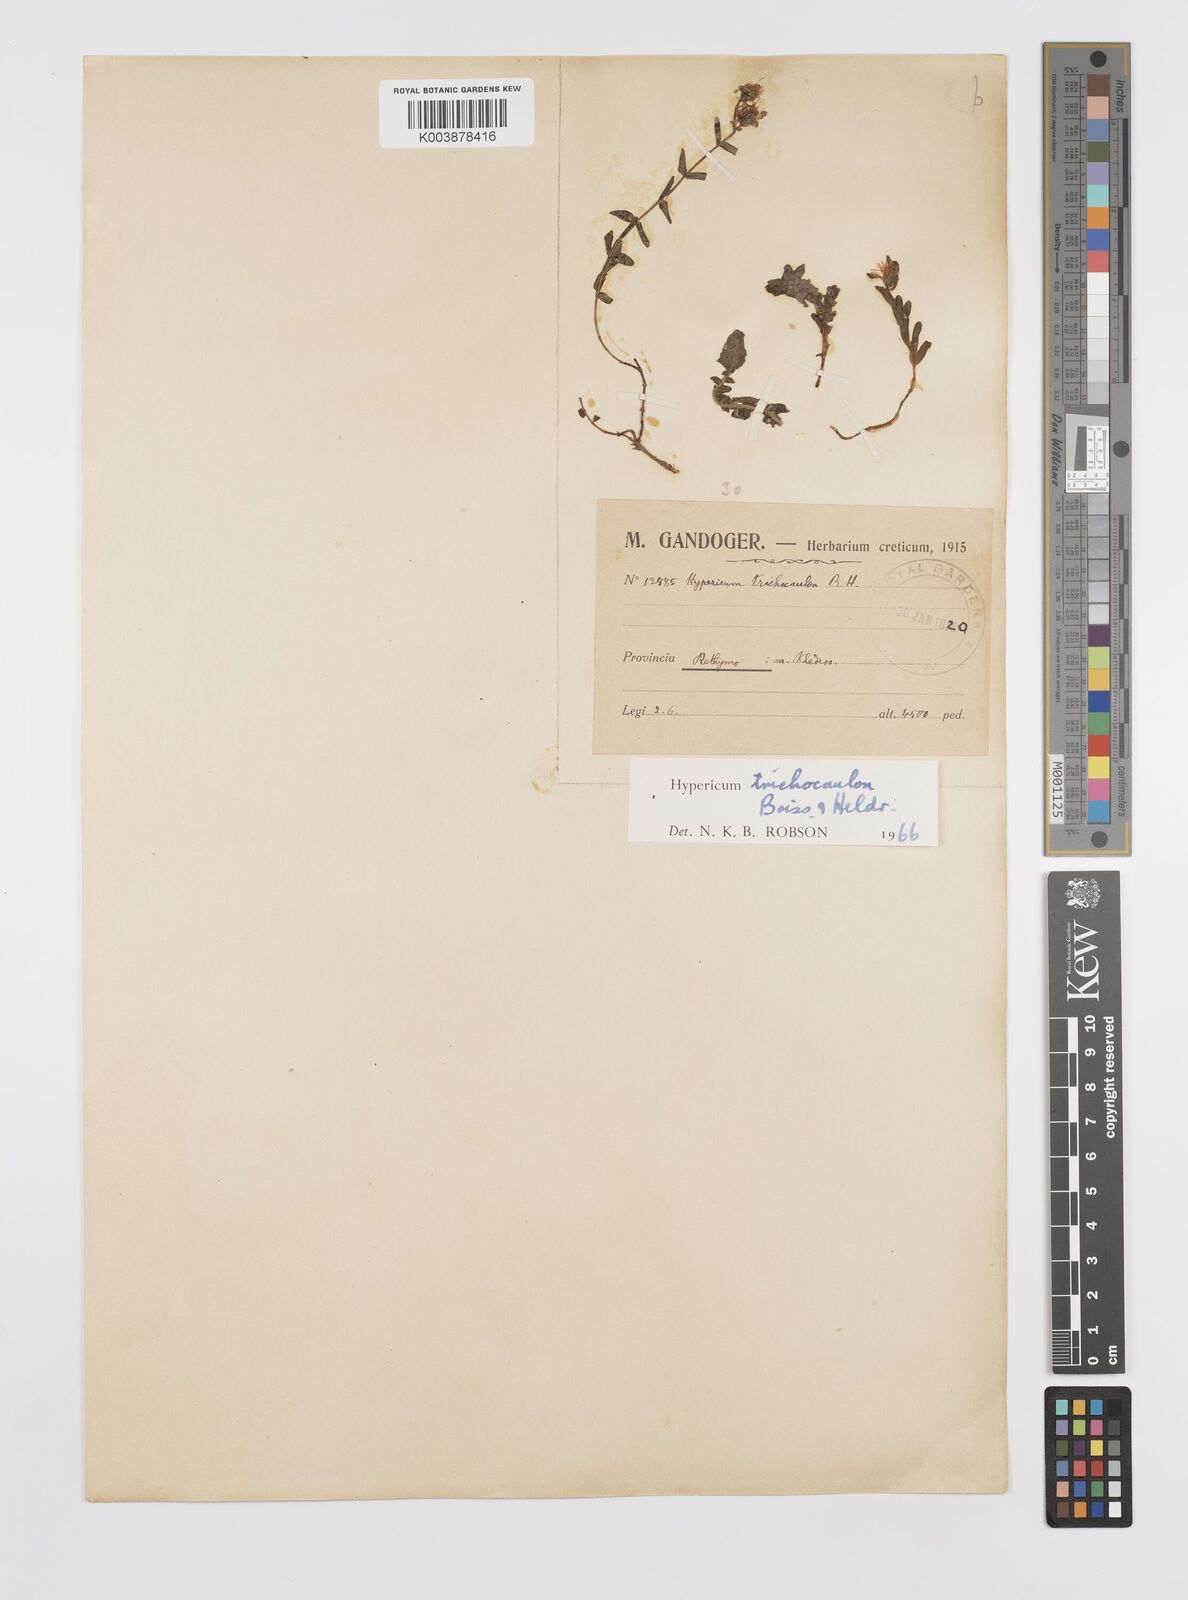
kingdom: Plantae
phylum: Tracheophyta
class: Magnoliopsida
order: Malpighiales
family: Hypericaceae
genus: Hypericum
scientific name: Hypericum trichocaulon
